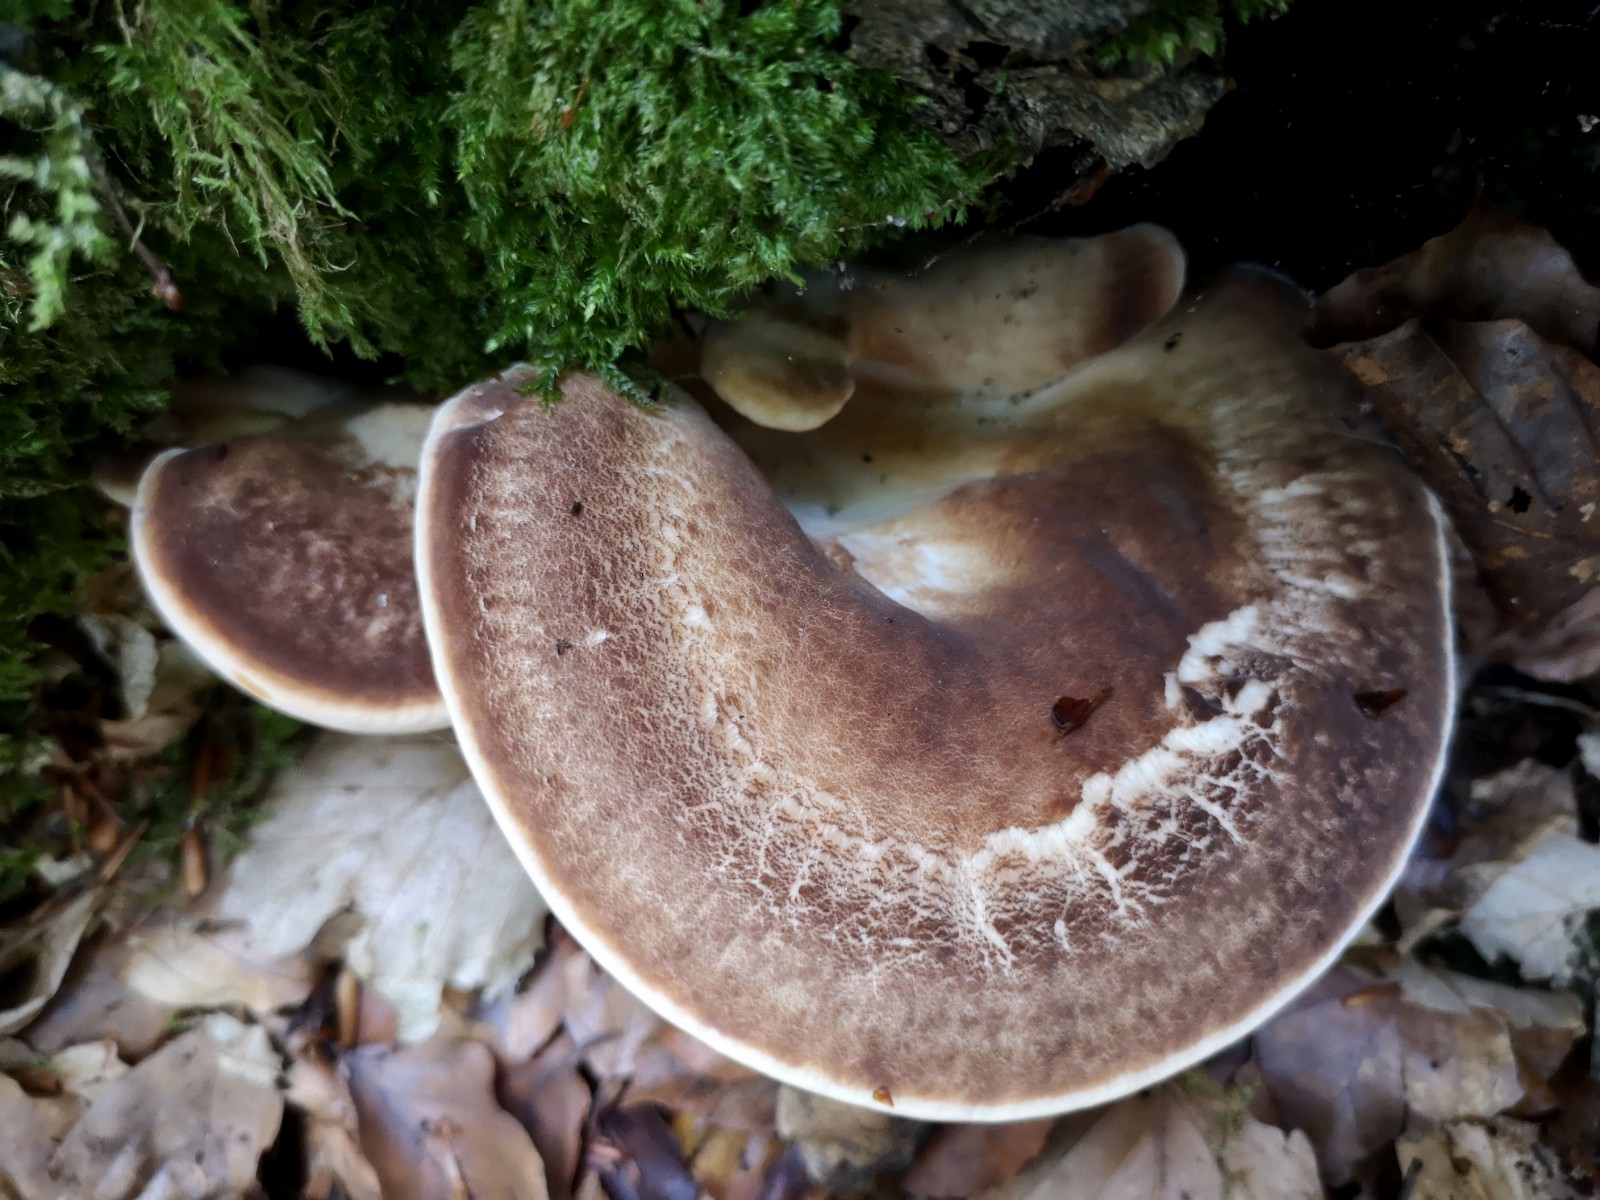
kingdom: Fungi
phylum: Basidiomycota
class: Agaricomycetes
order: Polyporales
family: Ischnodermataceae
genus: Ischnoderma
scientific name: Ischnoderma resinosum
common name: løv-tjæreporesvamp
